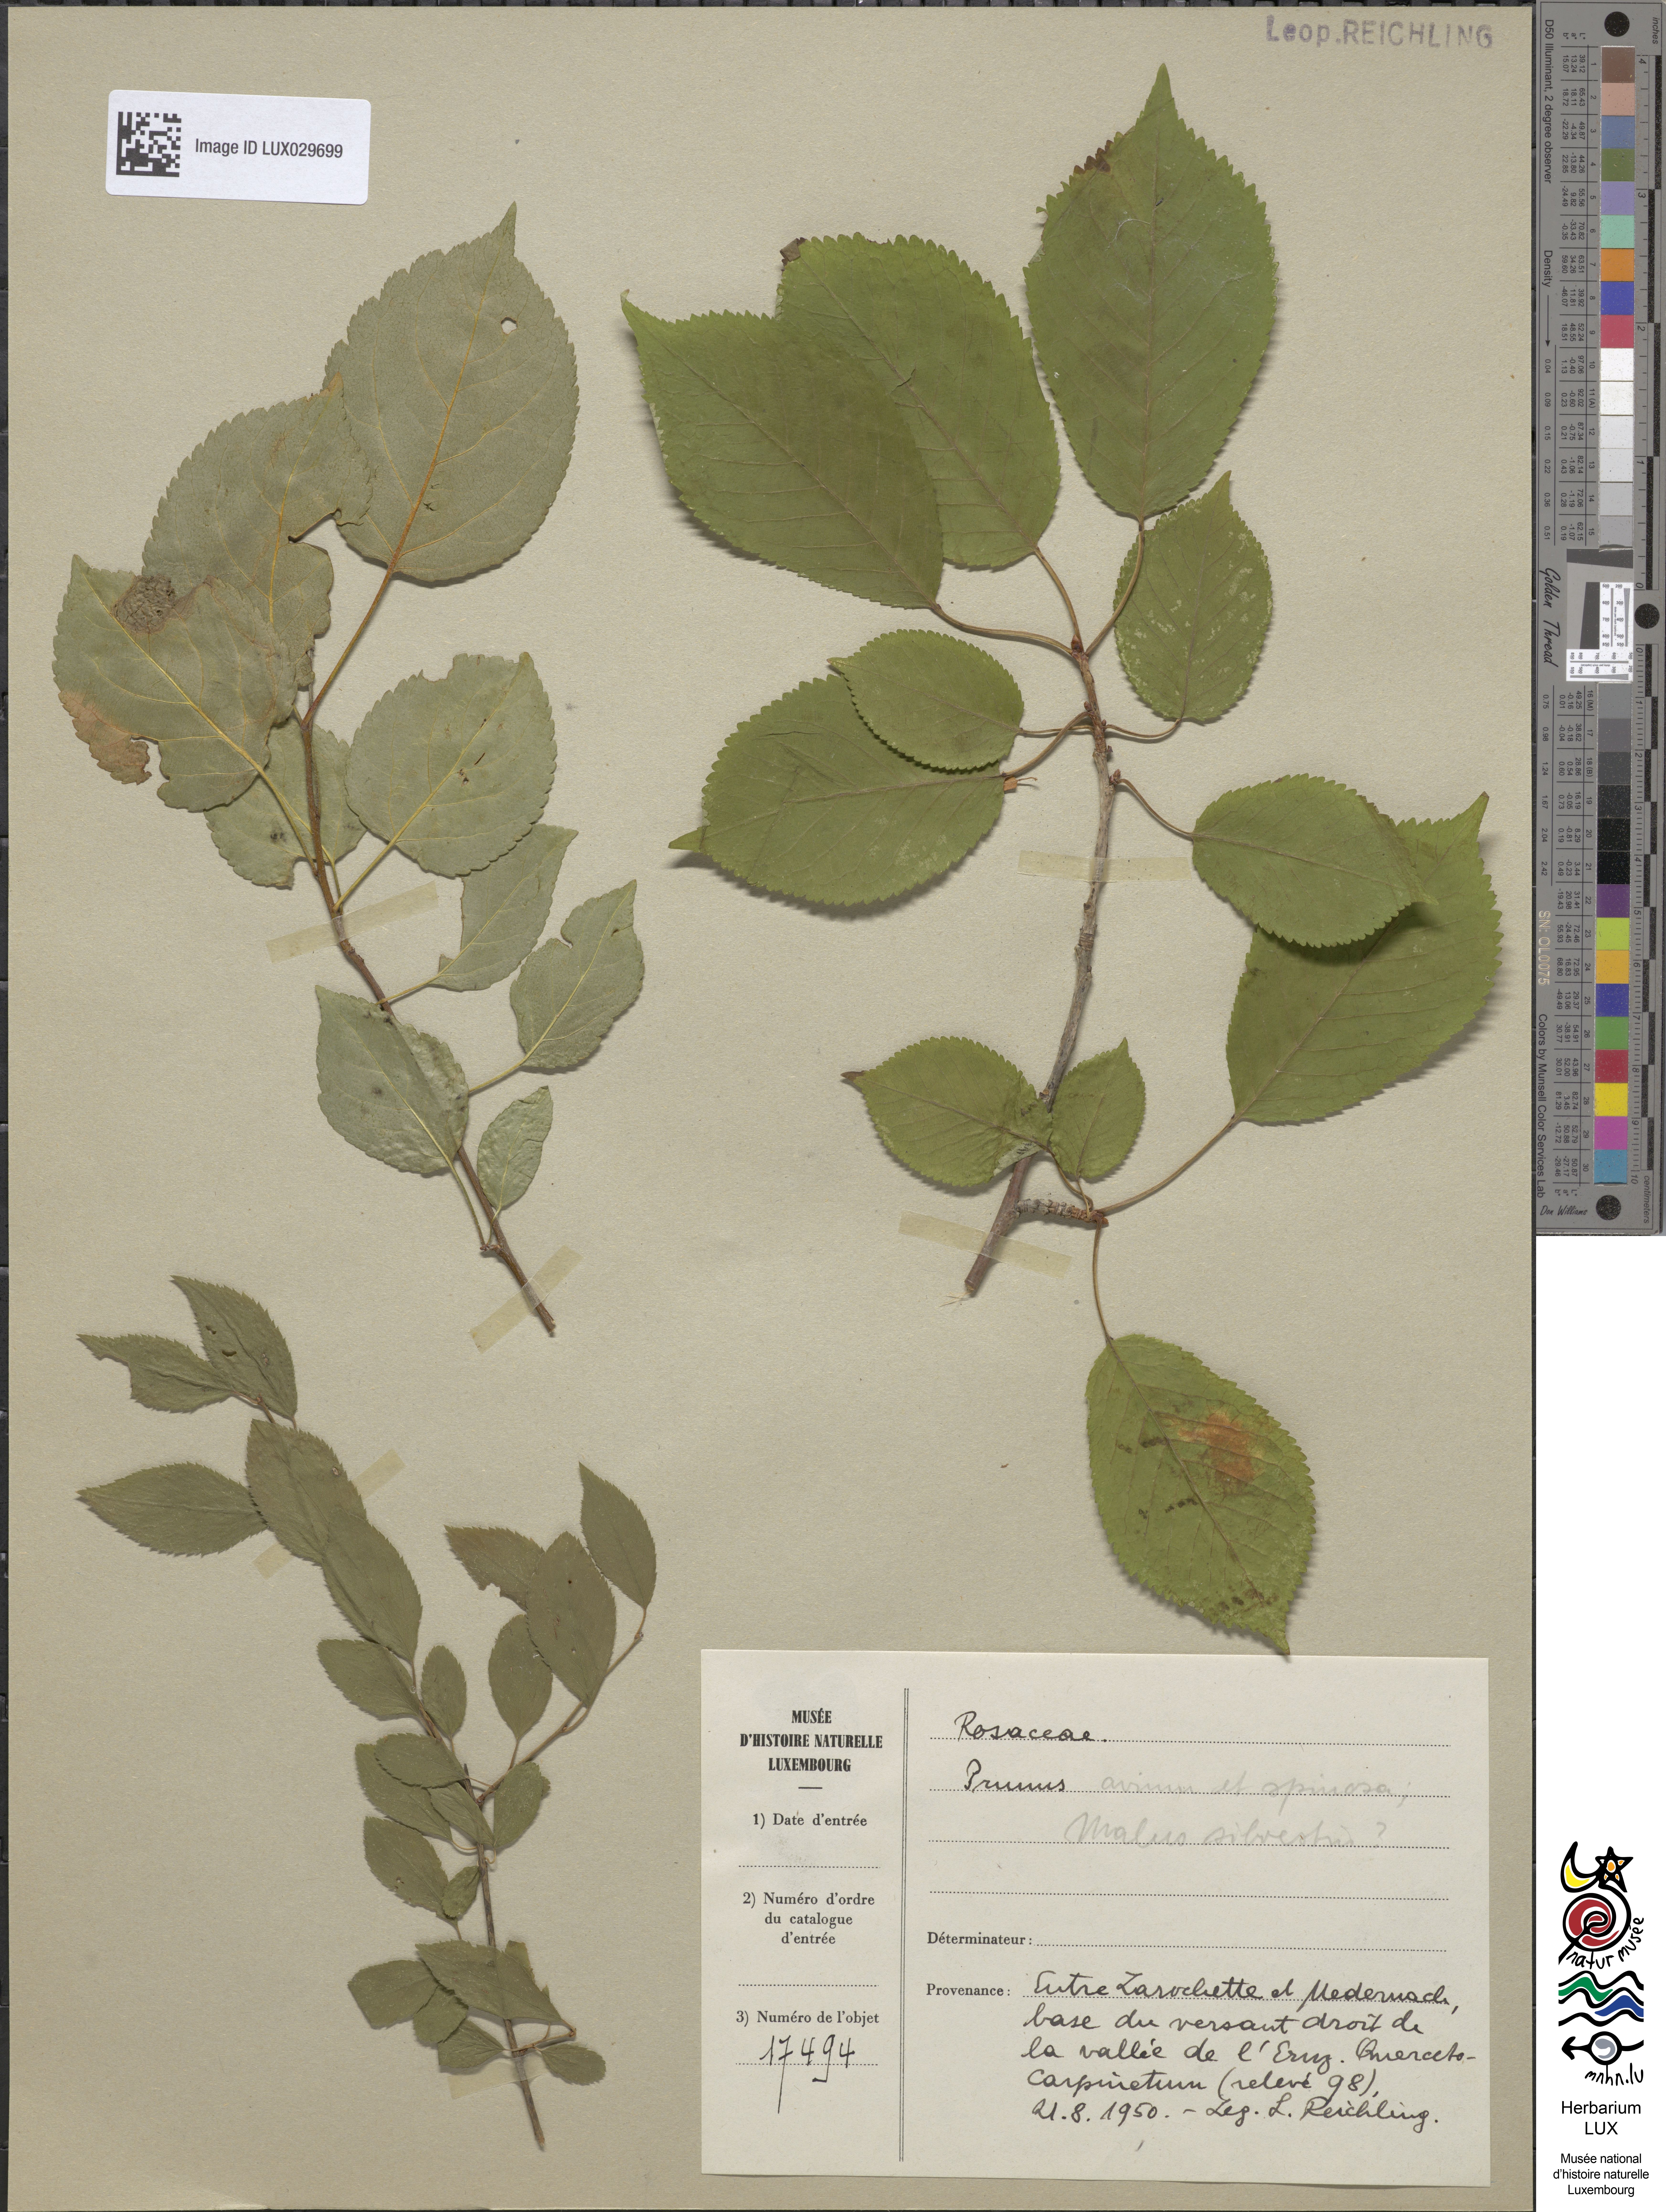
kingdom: Plantae
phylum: Tracheophyta
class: Magnoliopsida
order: Rosales
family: Rosaceae
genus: Prunus
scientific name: Prunus
